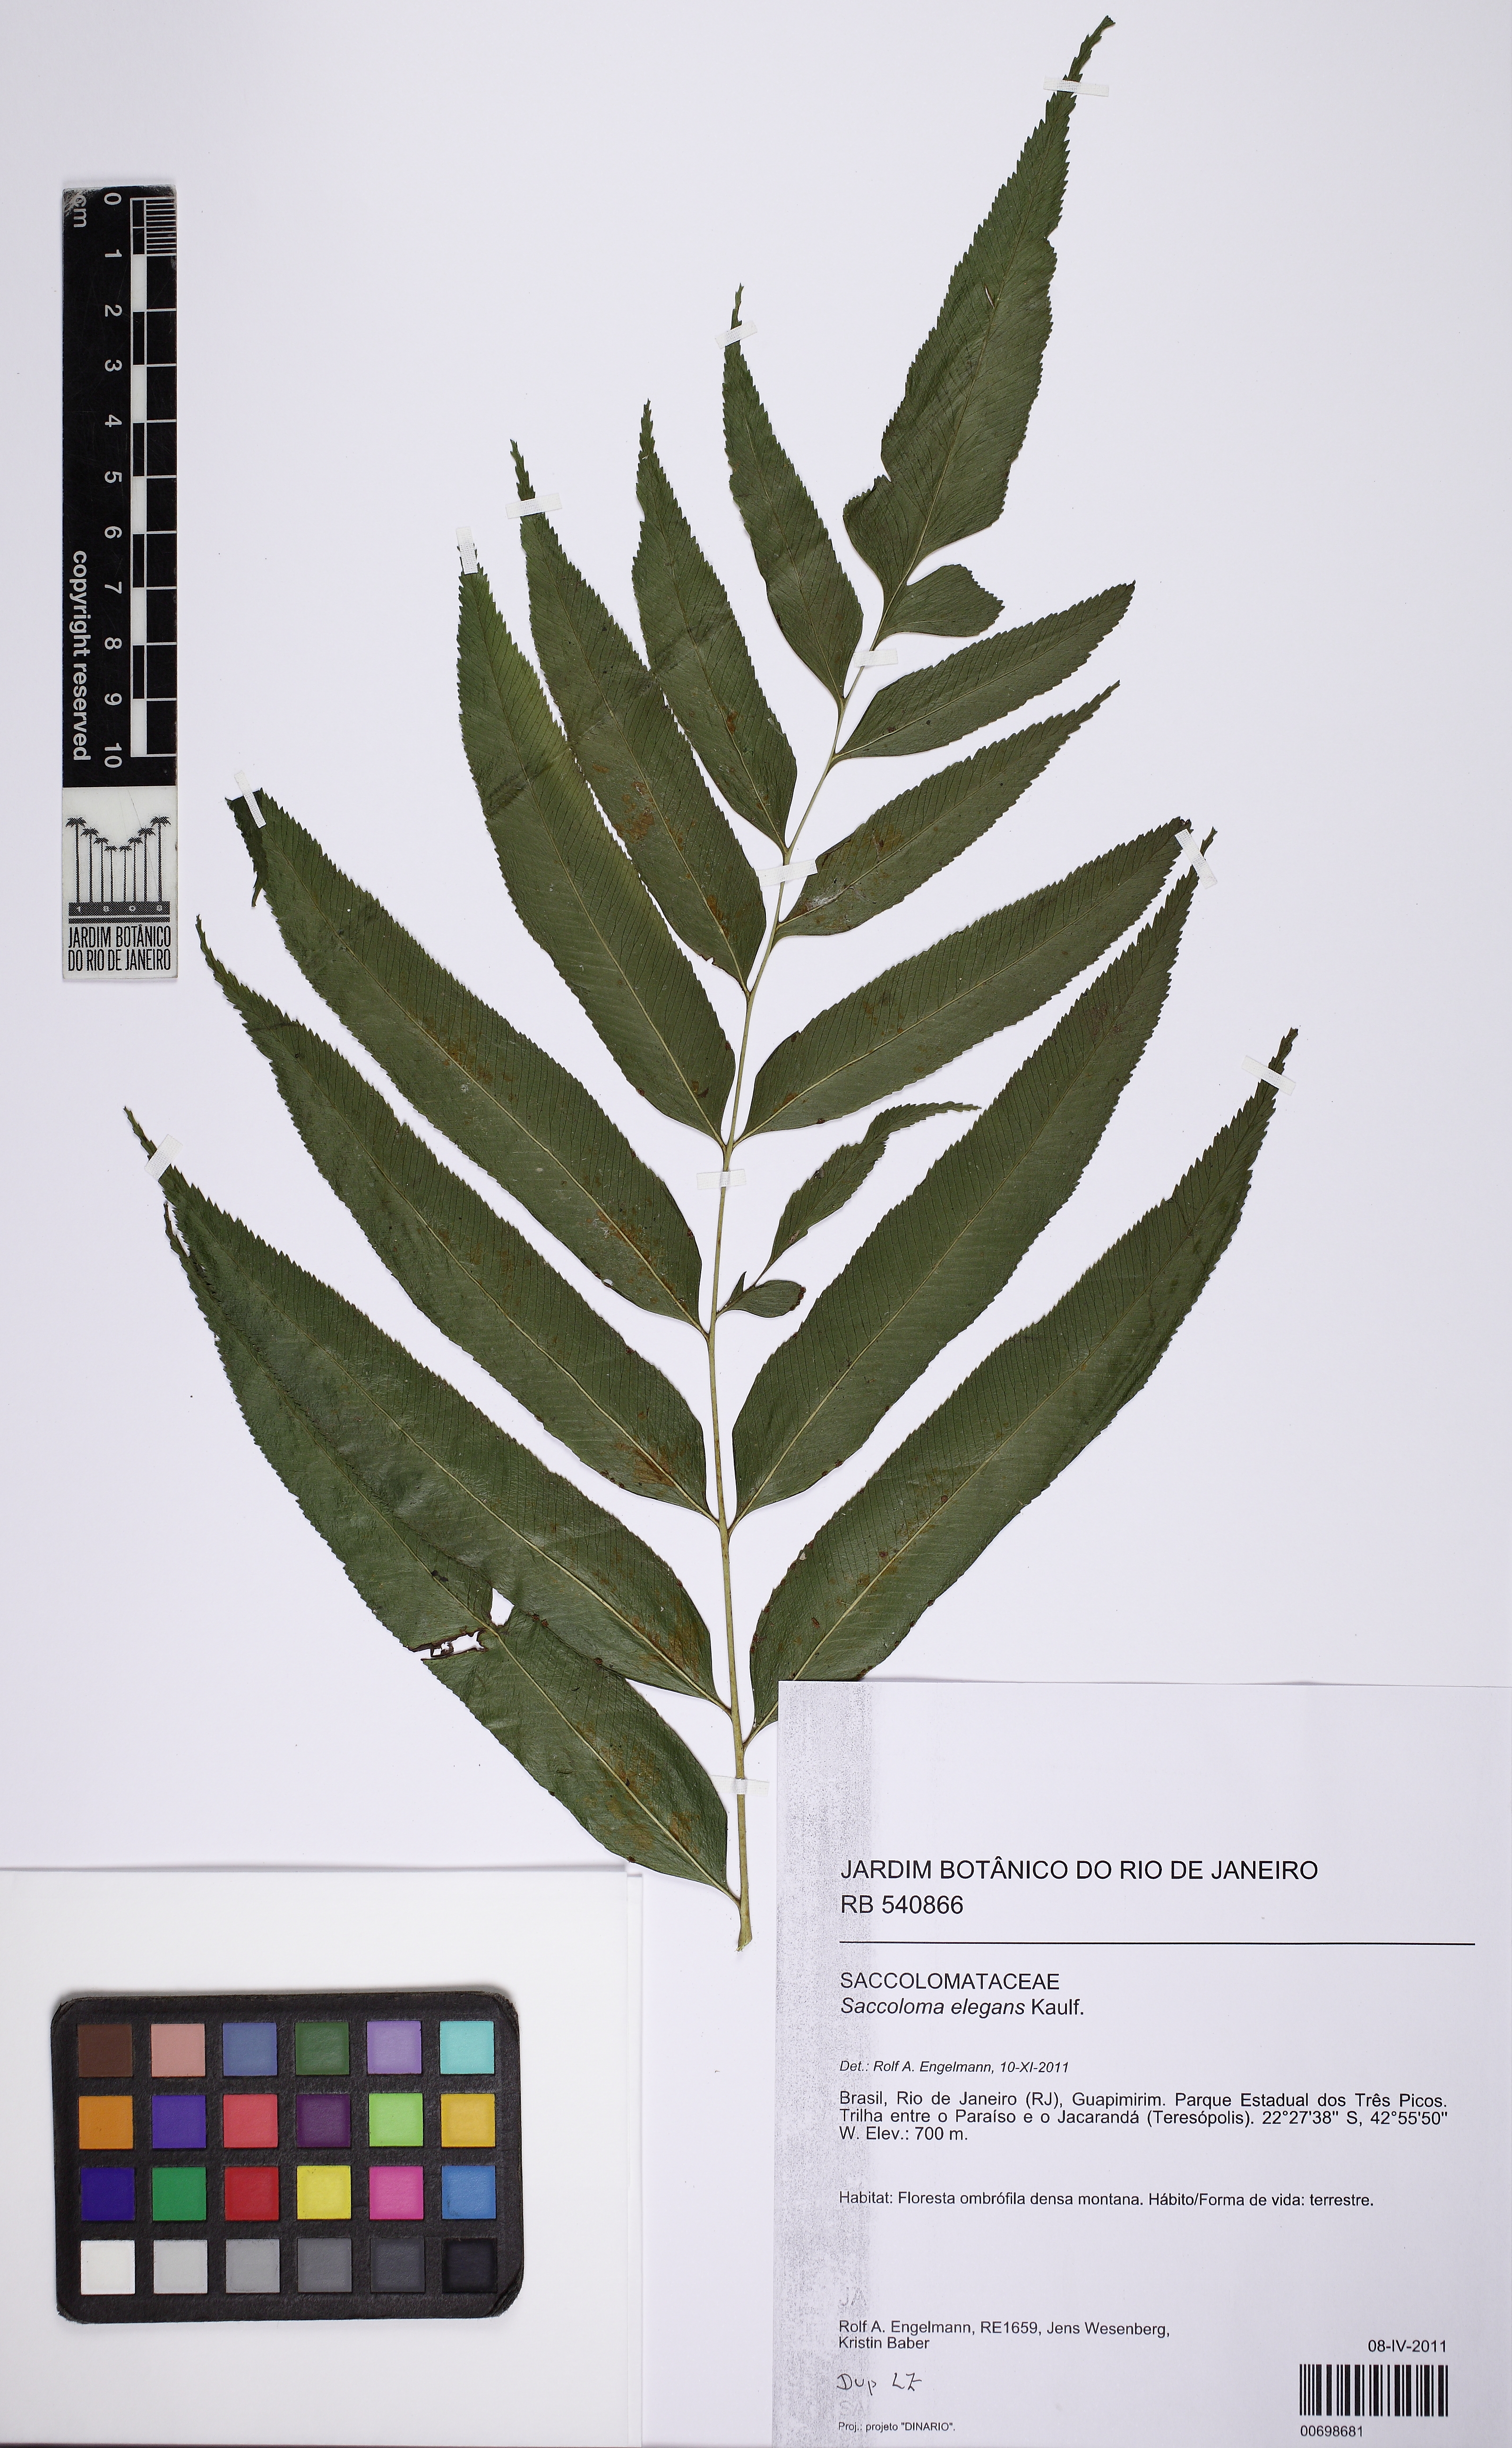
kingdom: Plantae
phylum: Tracheophyta
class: Polypodiopsida
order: Polypodiales
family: Saccolomataceae
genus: Saccoloma
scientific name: Saccoloma elegans
